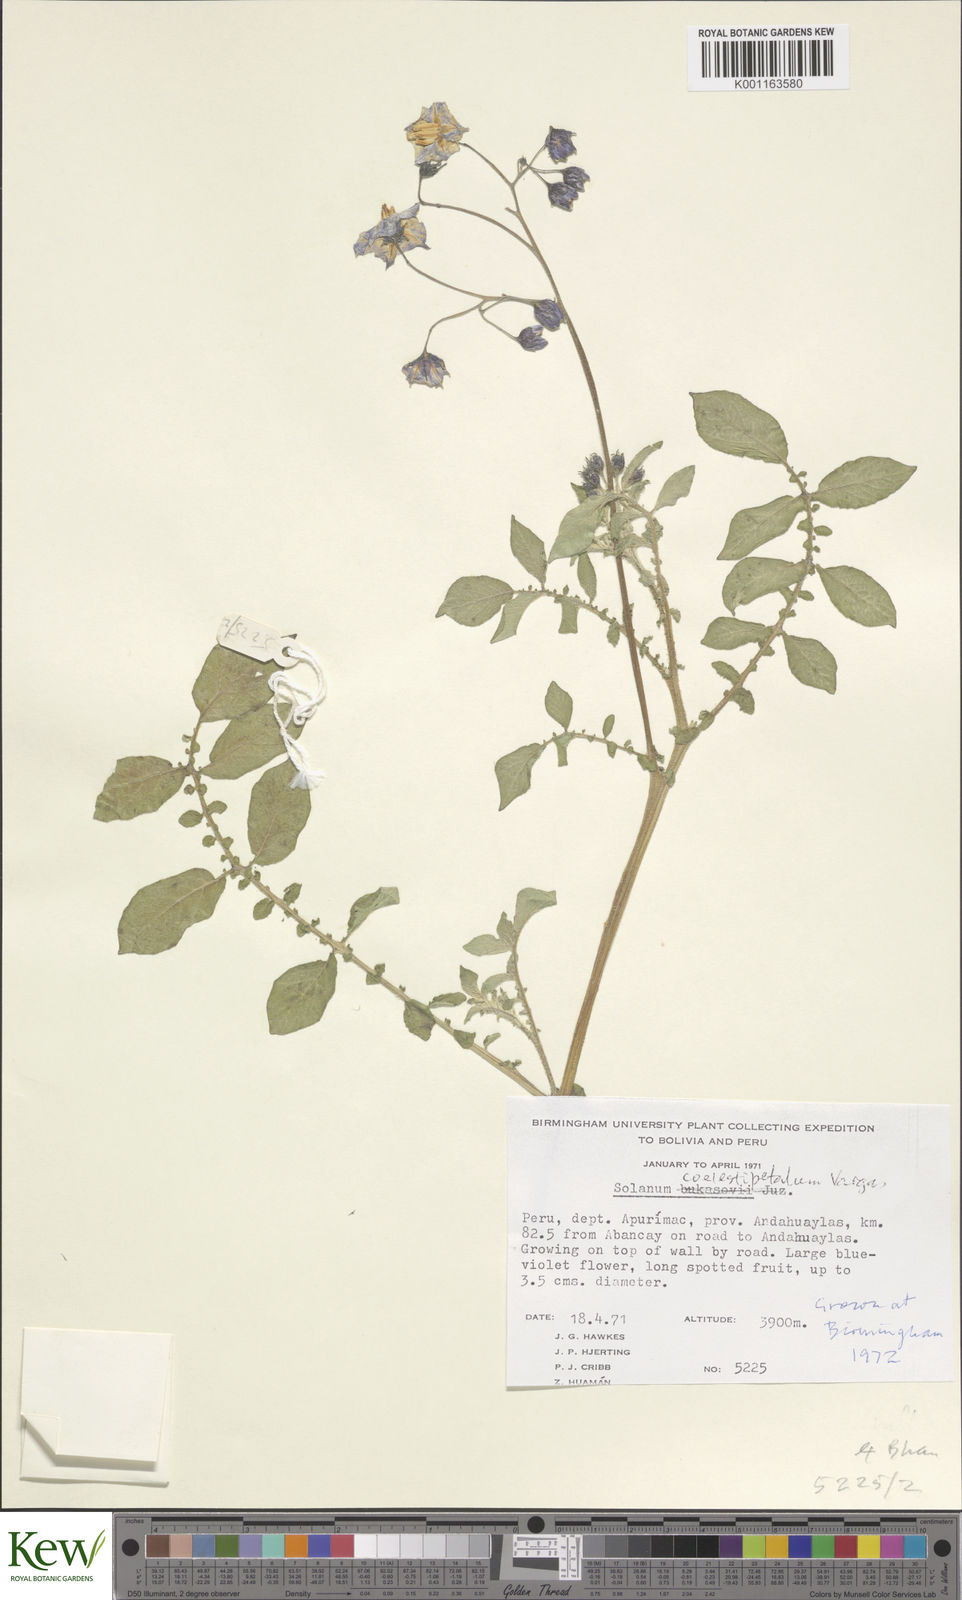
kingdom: Plantae
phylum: Tracheophyta
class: Magnoliopsida
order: Solanales
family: Solanaceae
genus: Solanum
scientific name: Solanum brevicaule
